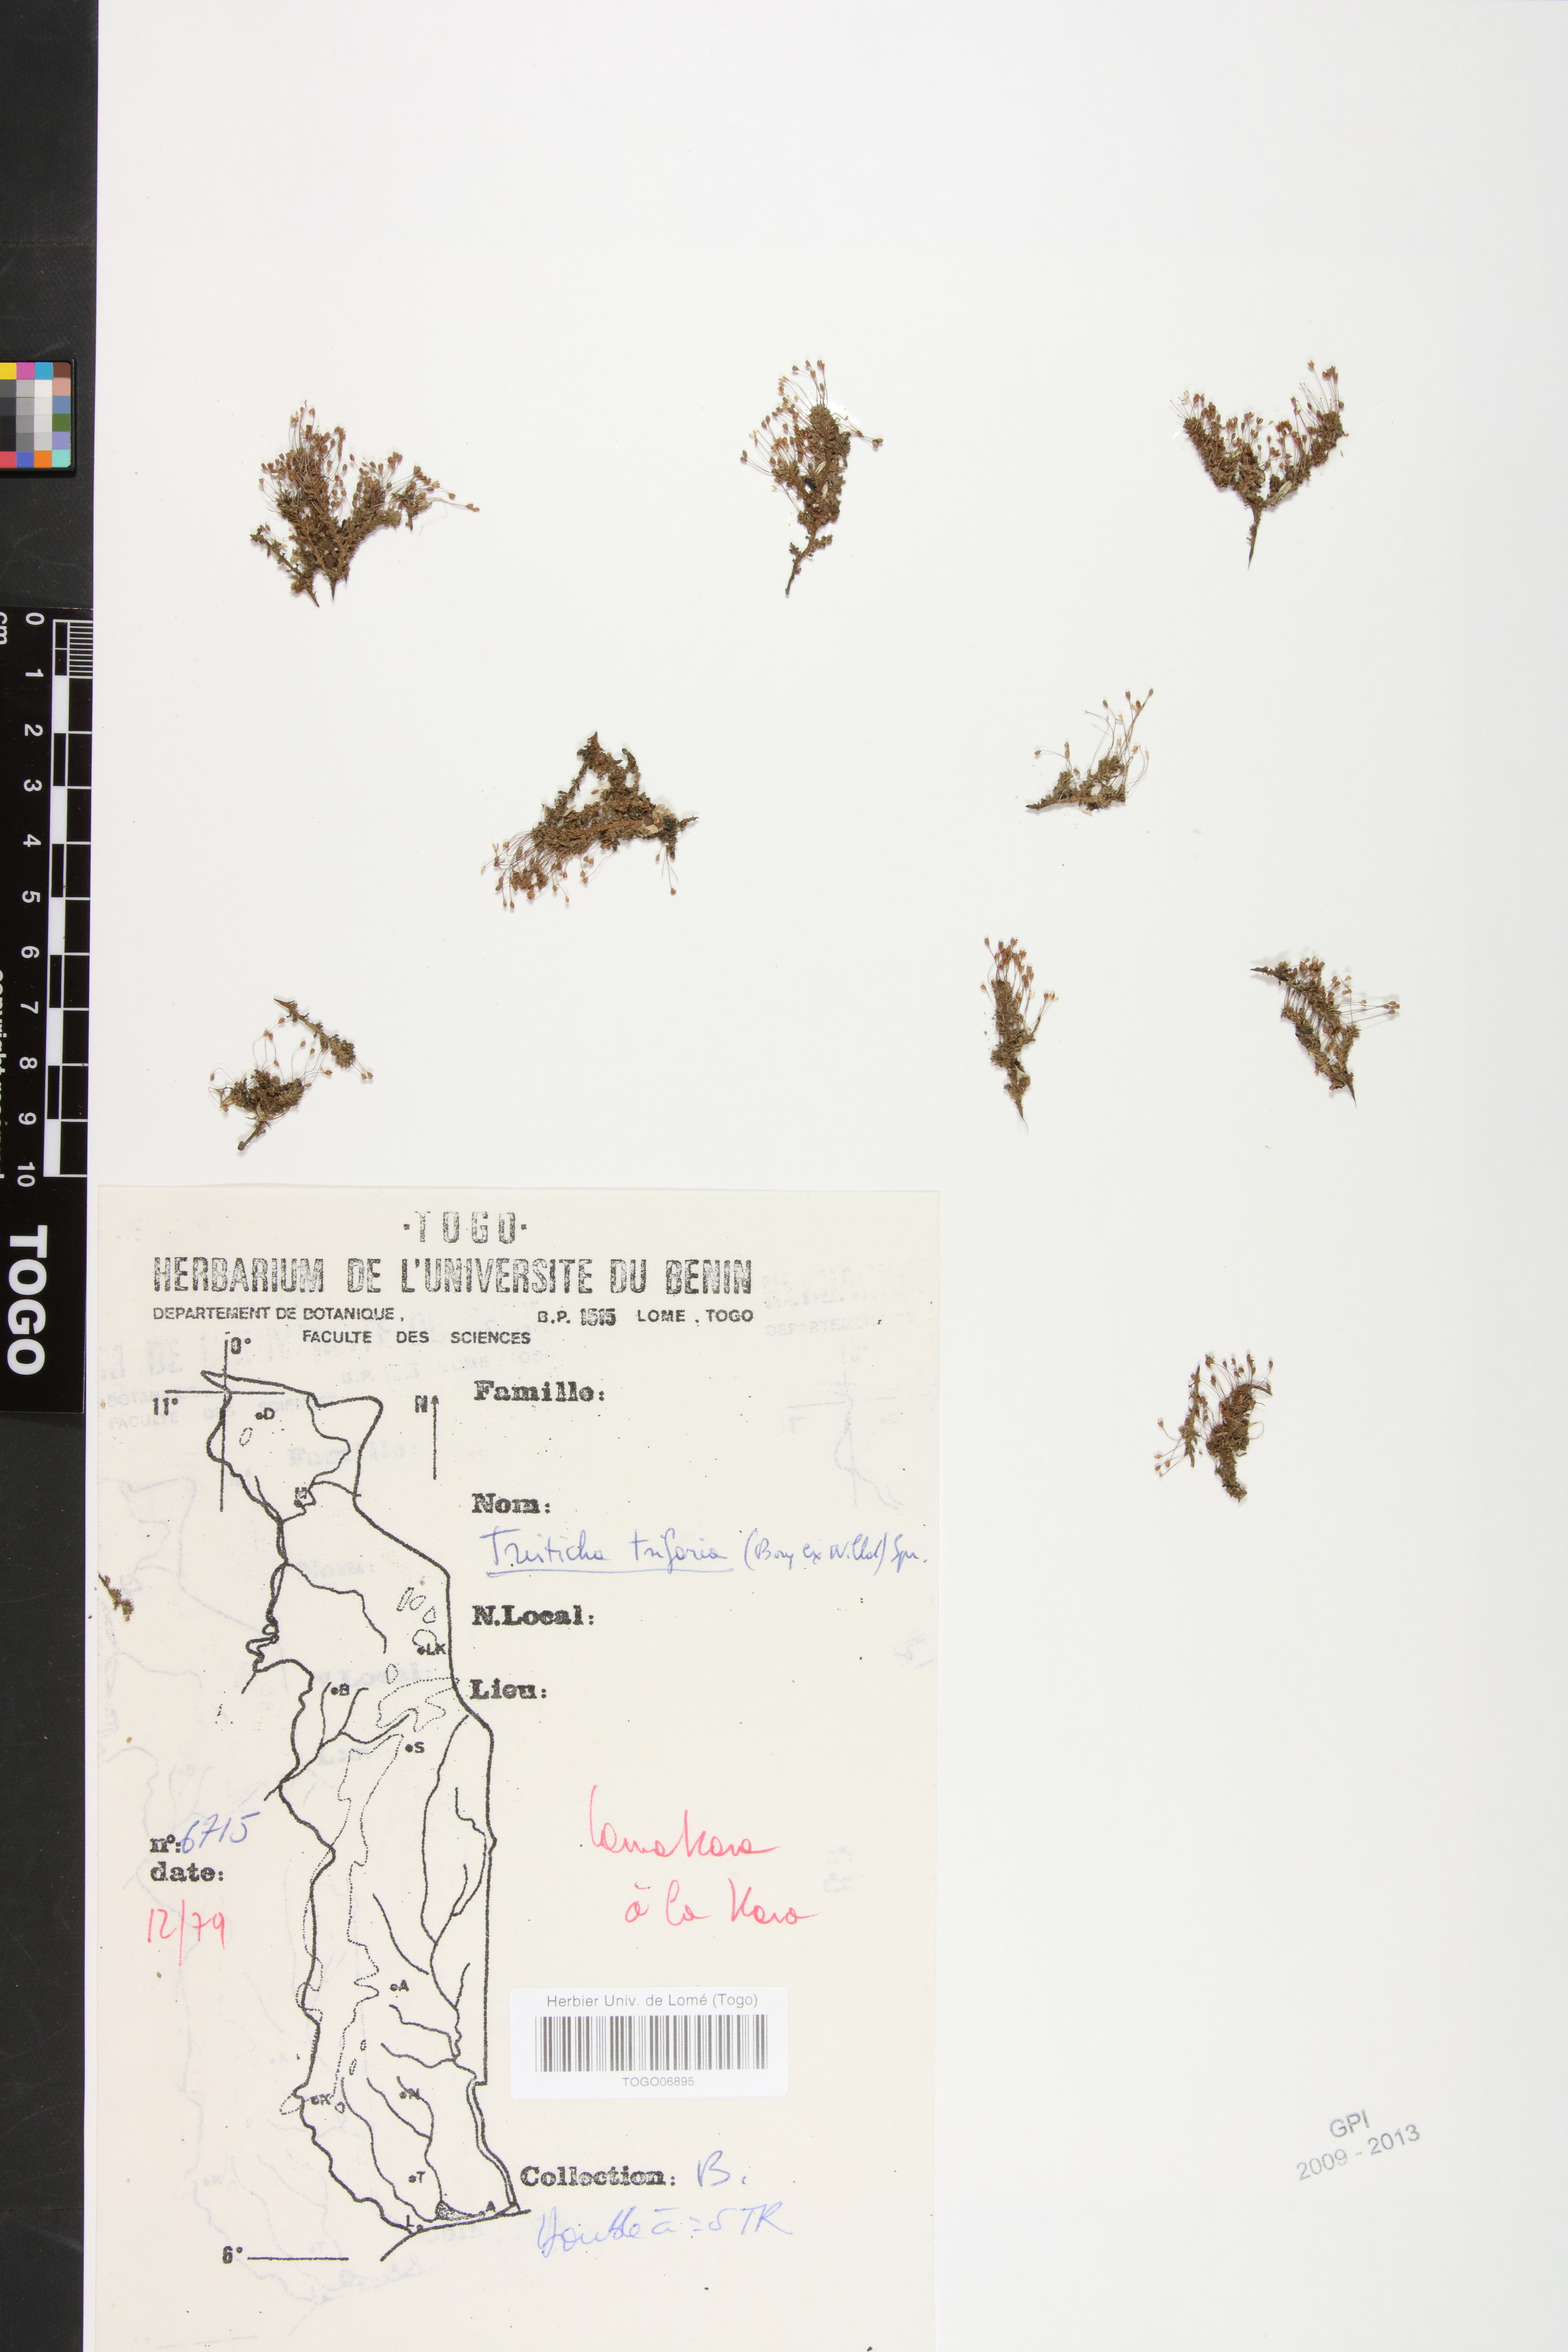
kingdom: Plantae
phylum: Tracheophyta
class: Magnoliopsida
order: Malpighiales
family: Podostemaceae
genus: Tristicha
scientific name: Tristicha trifaria
